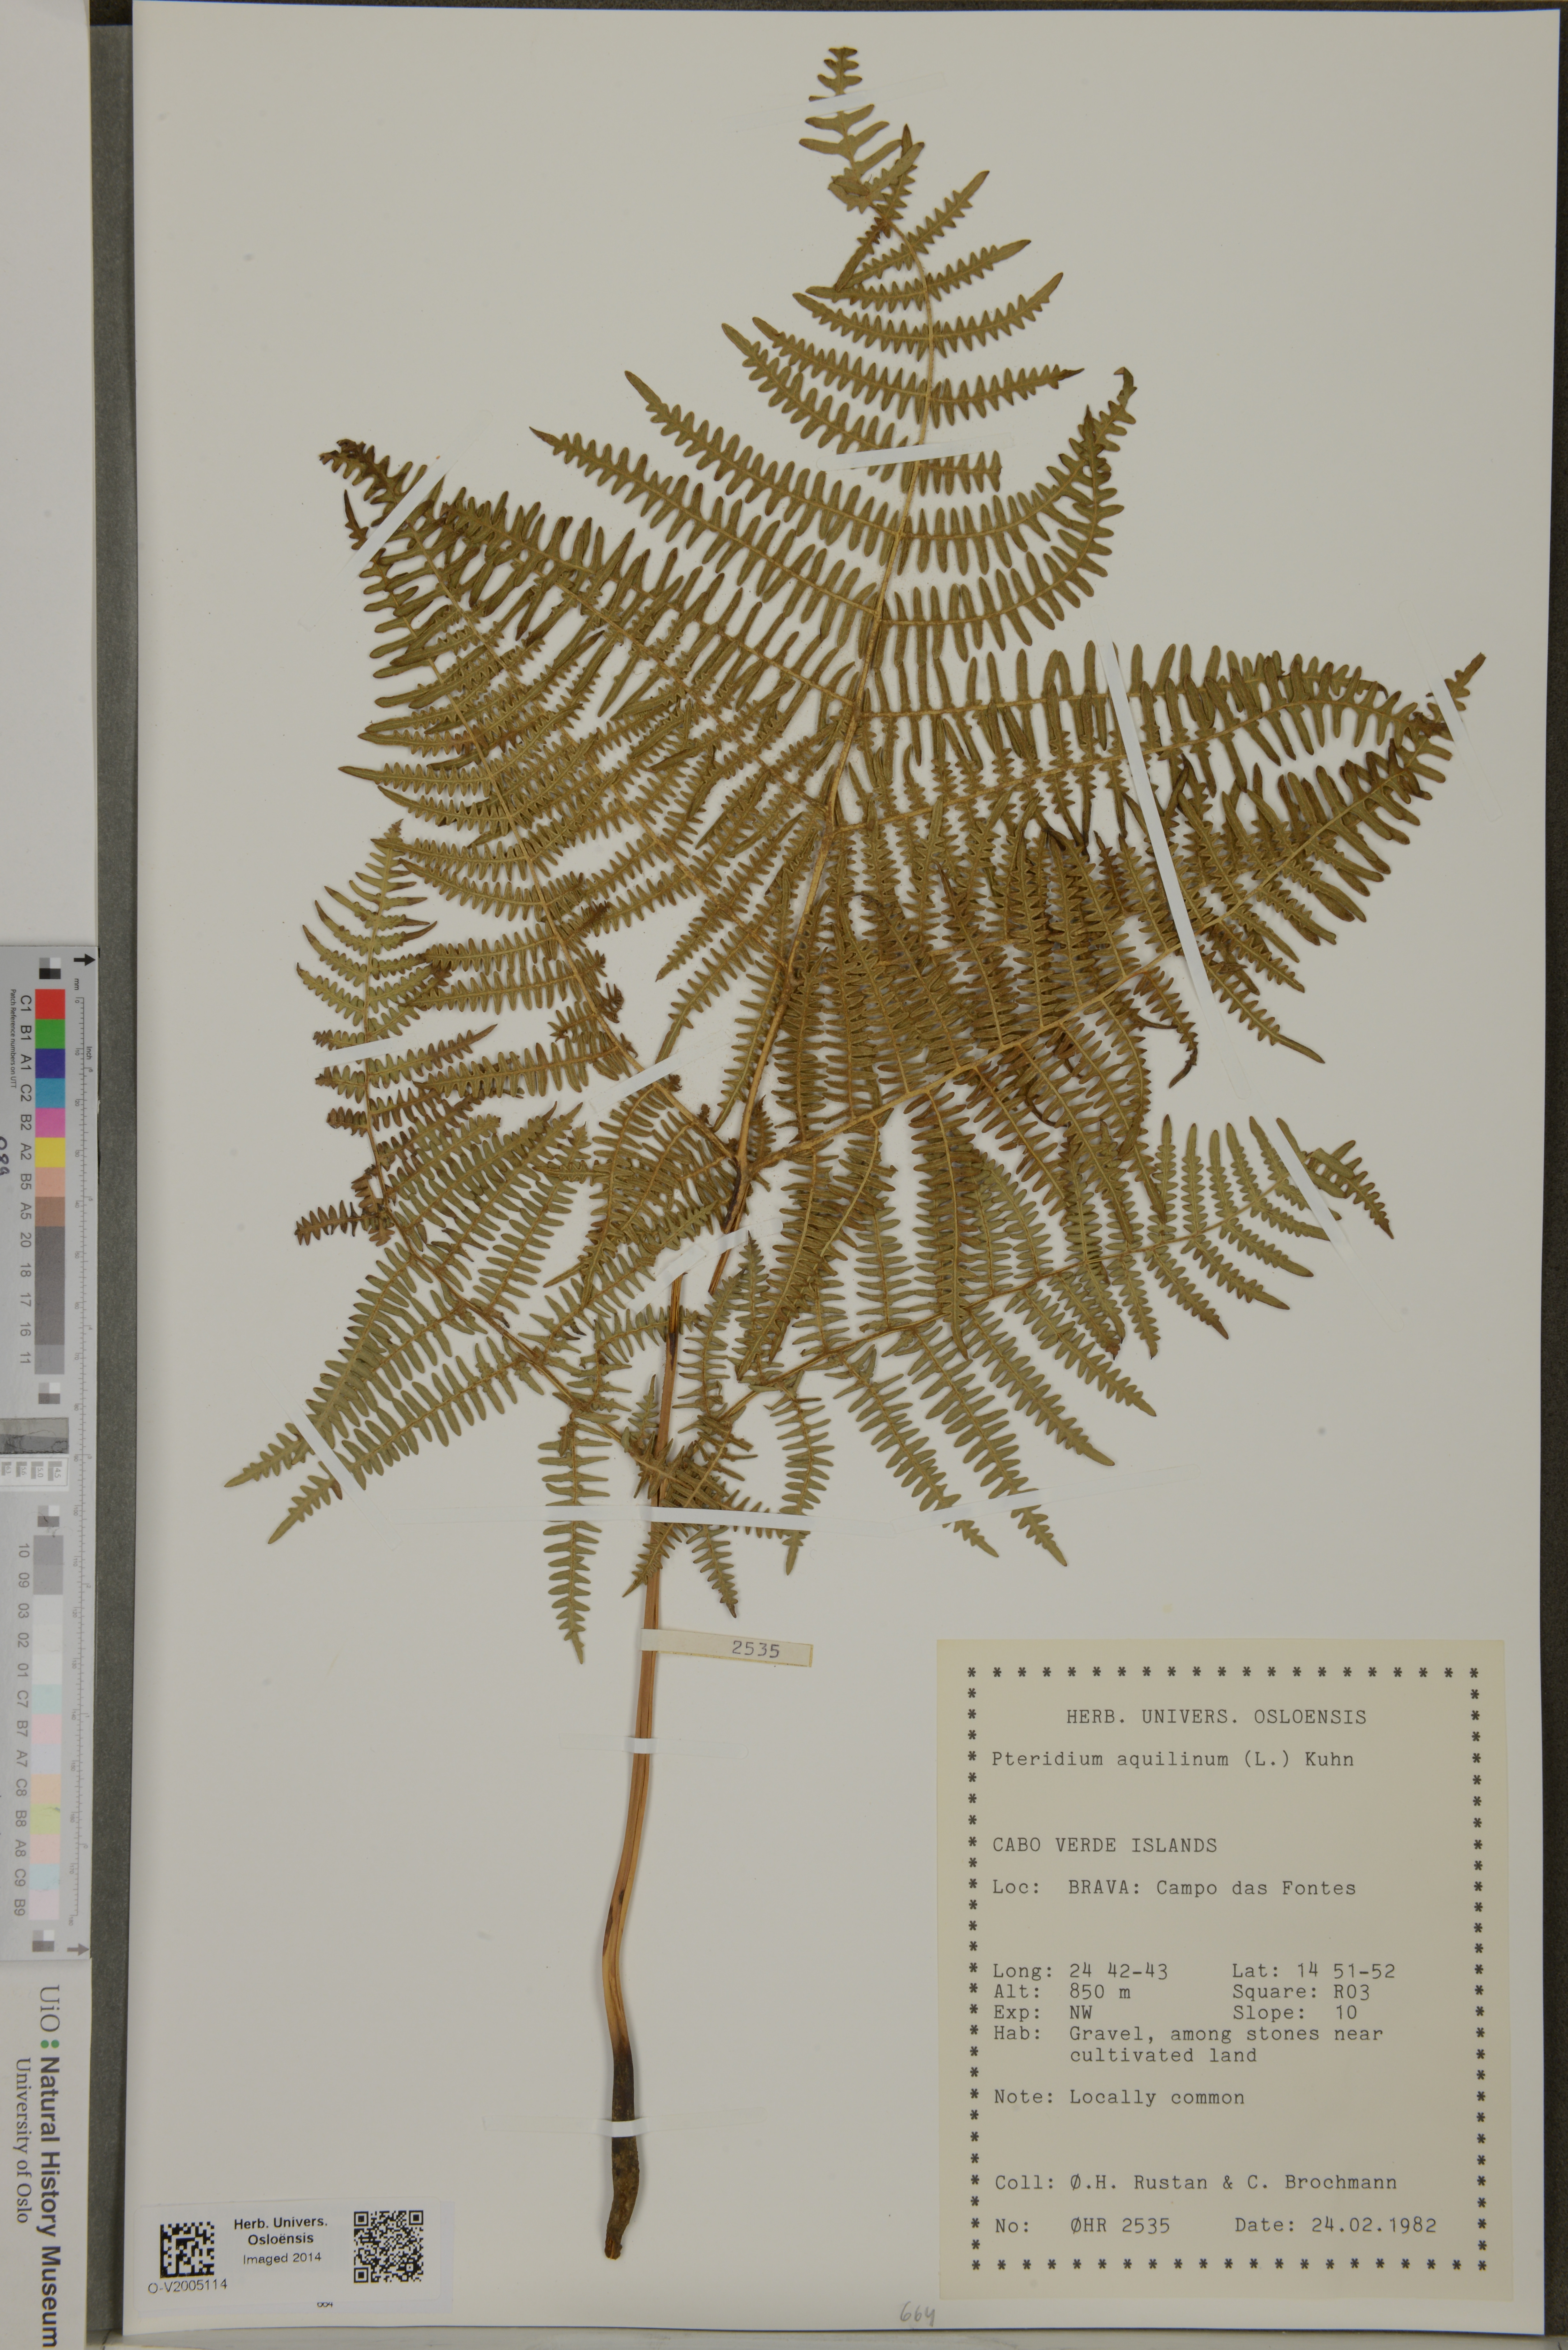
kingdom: Plantae
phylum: Tracheophyta
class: Polypodiopsida
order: Polypodiales
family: Dennstaedtiaceae
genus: Pteridium
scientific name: Pteridium aquilinum
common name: Bracken
